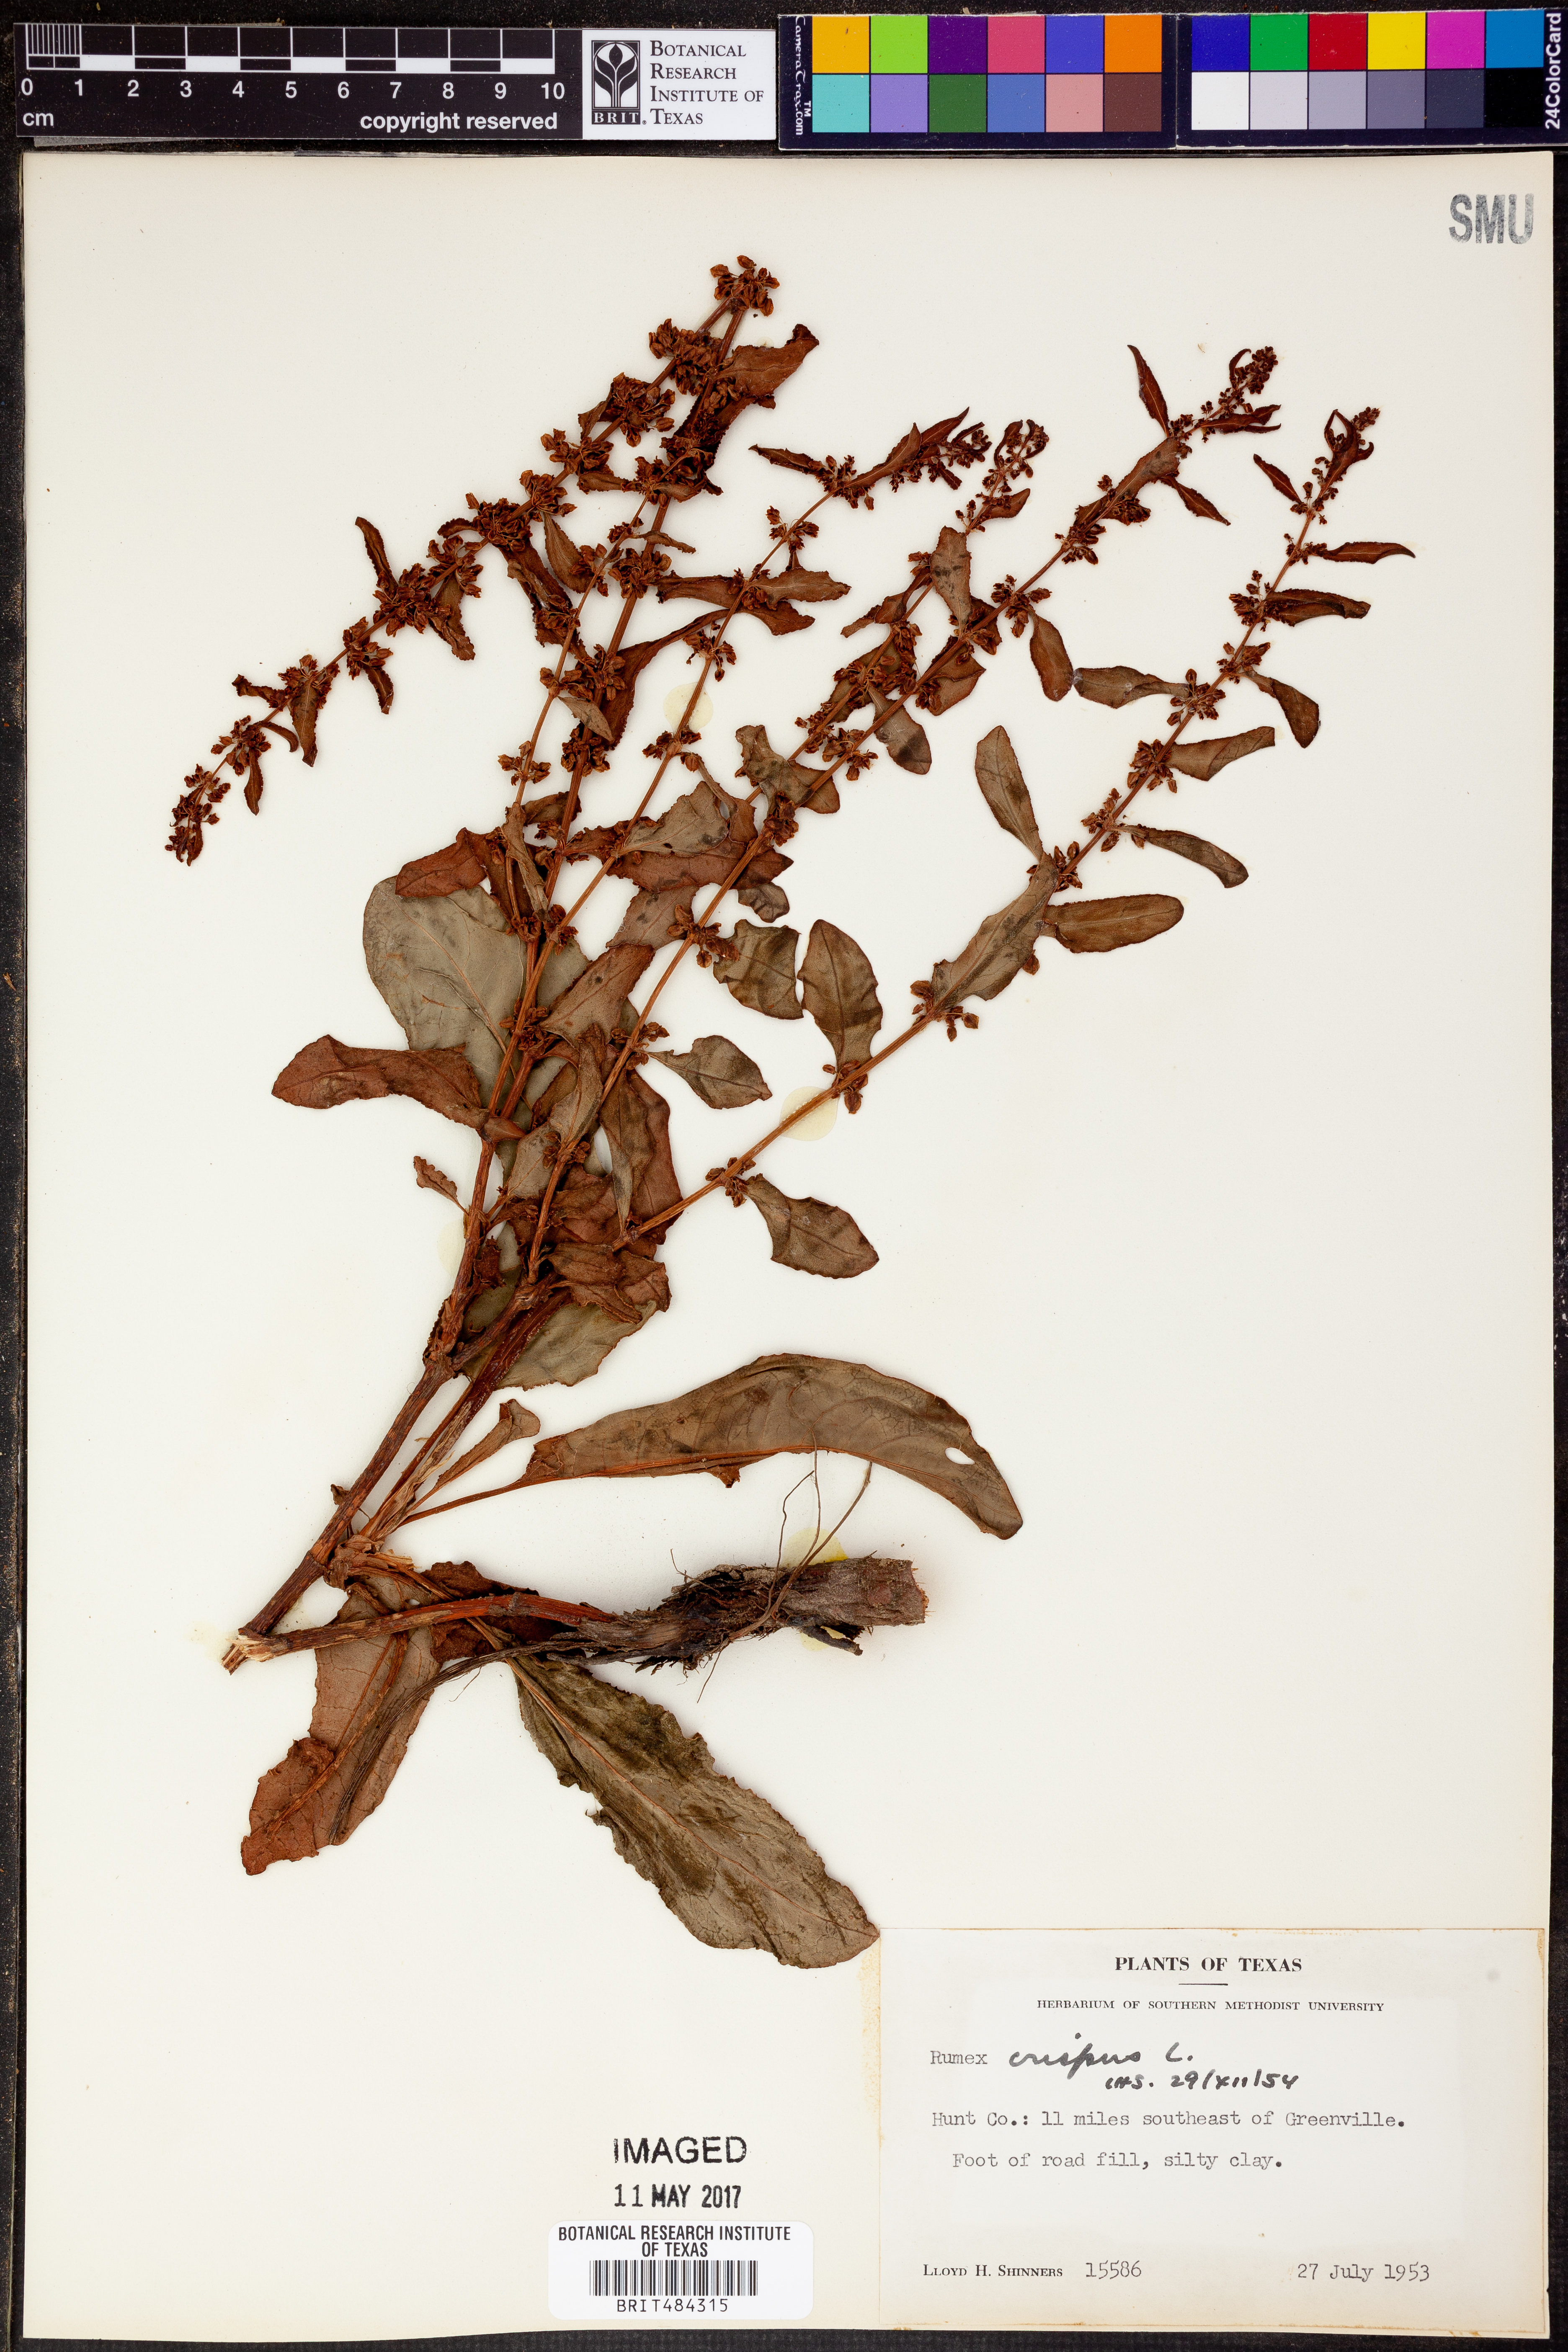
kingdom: Plantae
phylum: Tracheophyta
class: Magnoliopsida
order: Caryophyllales
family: Polygonaceae
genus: Rumex
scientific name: Rumex crispus
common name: Curled dock
